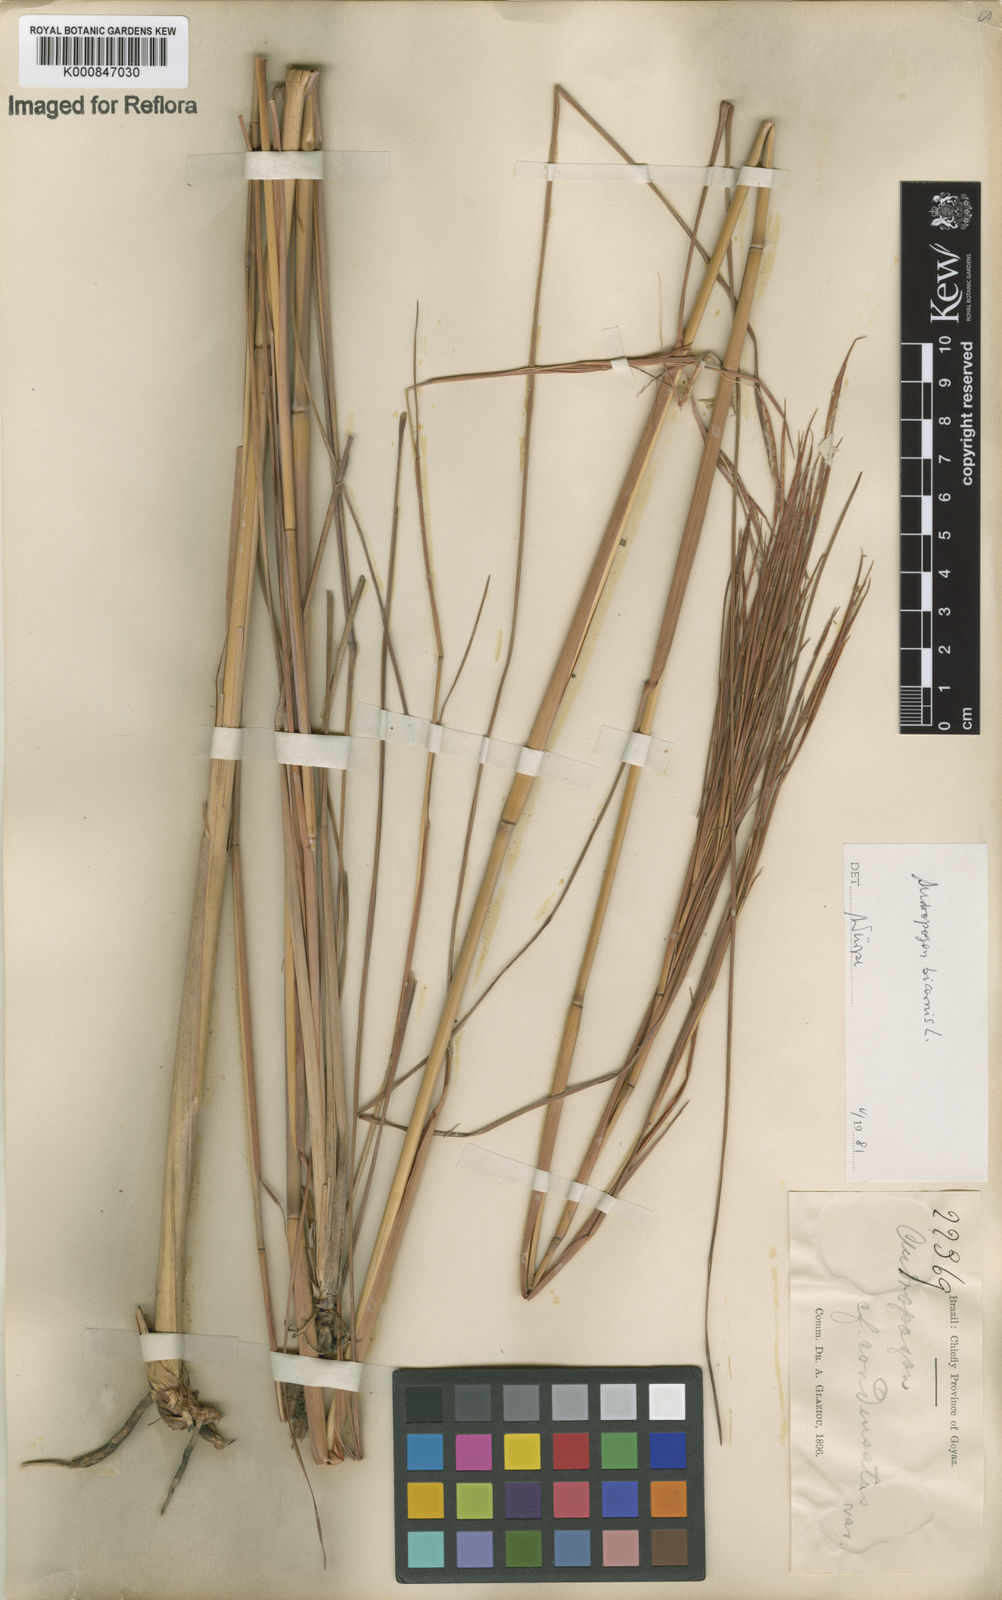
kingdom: Plantae
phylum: Tracheophyta
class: Liliopsida
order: Poales
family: Poaceae
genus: Andropogon
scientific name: Andropogon
